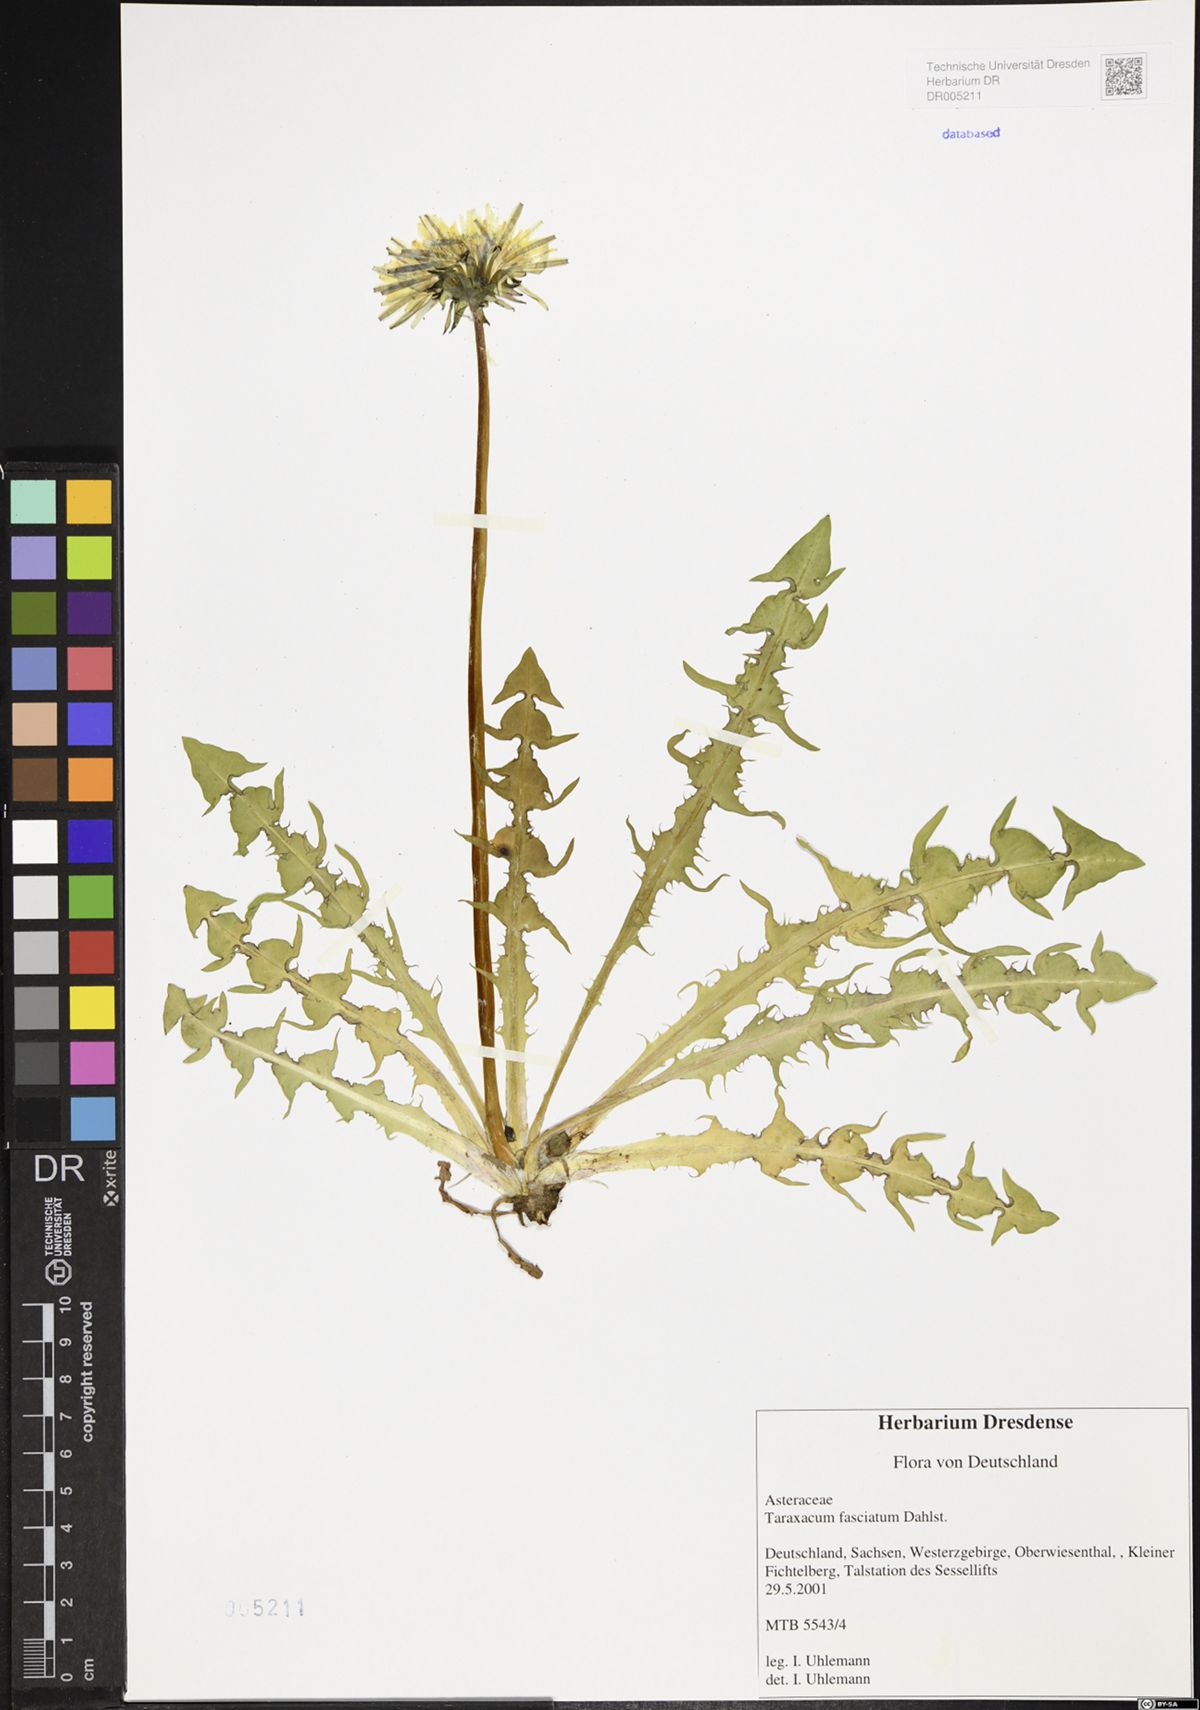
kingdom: Plantae
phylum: Tracheophyta
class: Magnoliopsida
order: Asterales
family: Asteraceae
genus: Taraxacum
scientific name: Taraxacum fasciatum
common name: Dense-bracted dandelion
